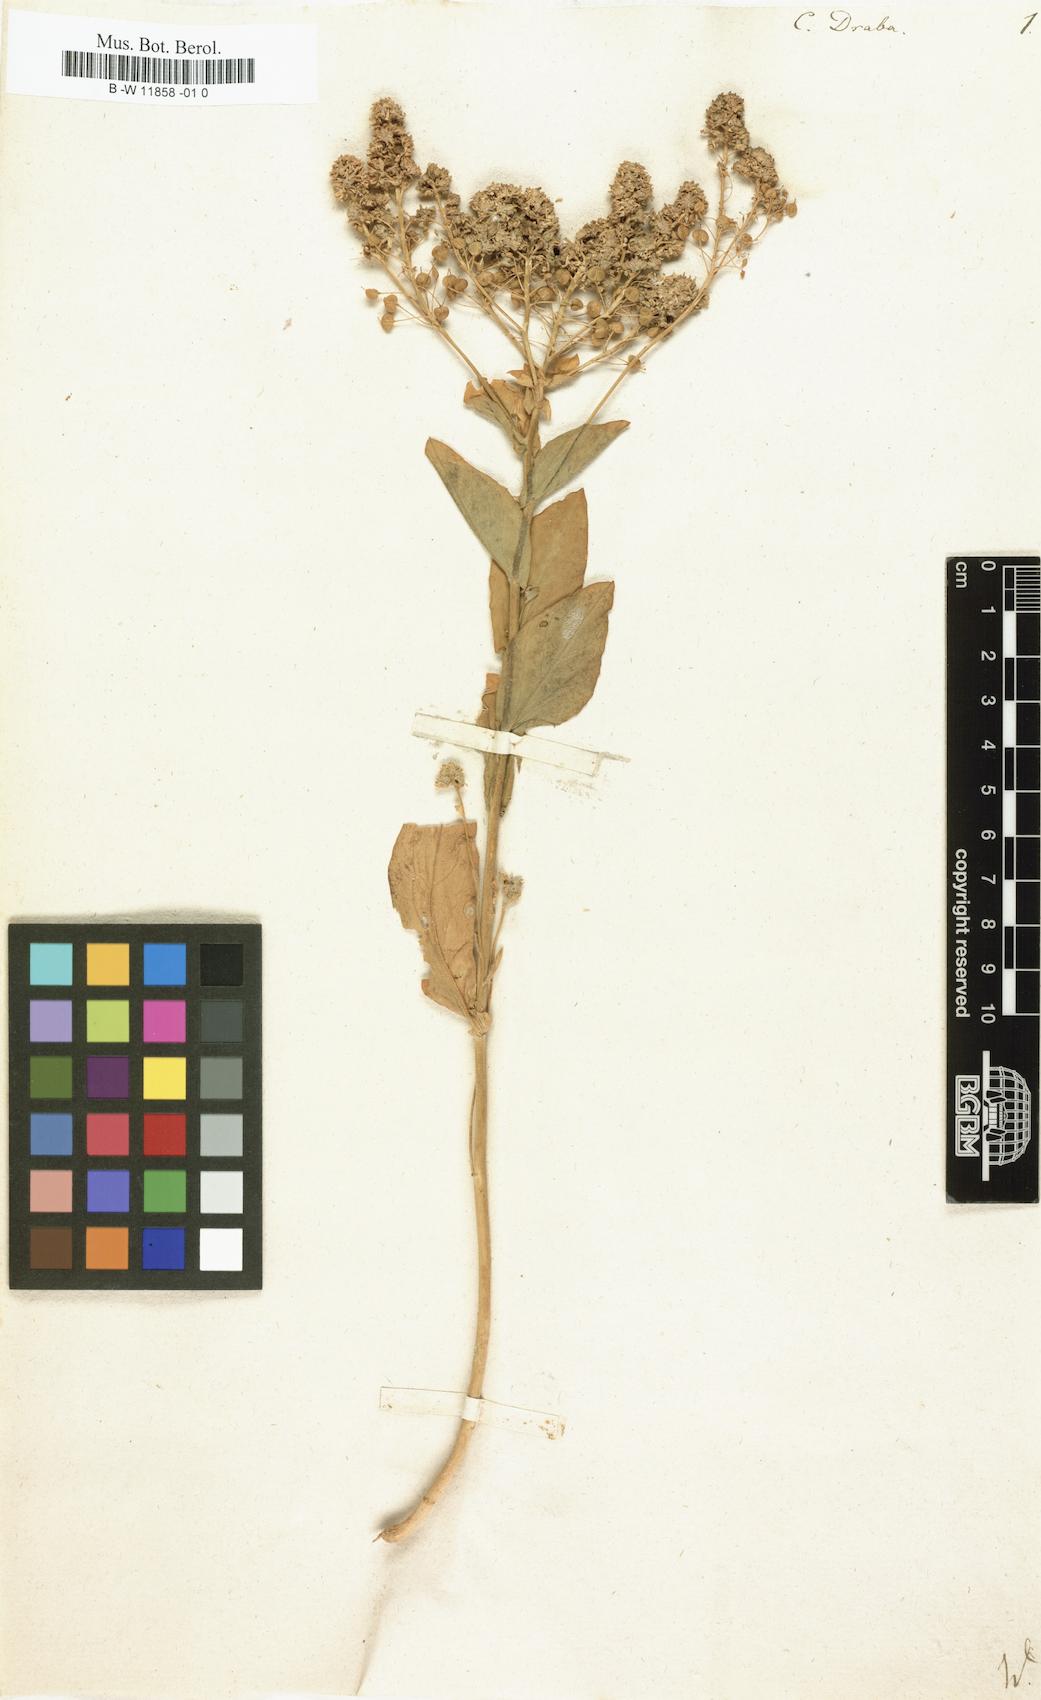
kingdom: Plantae
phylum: Tracheophyta
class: Magnoliopsida
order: Brassicales
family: Brassicaceae
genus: Lepidium
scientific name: Lepidium draba
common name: Hoary cress
